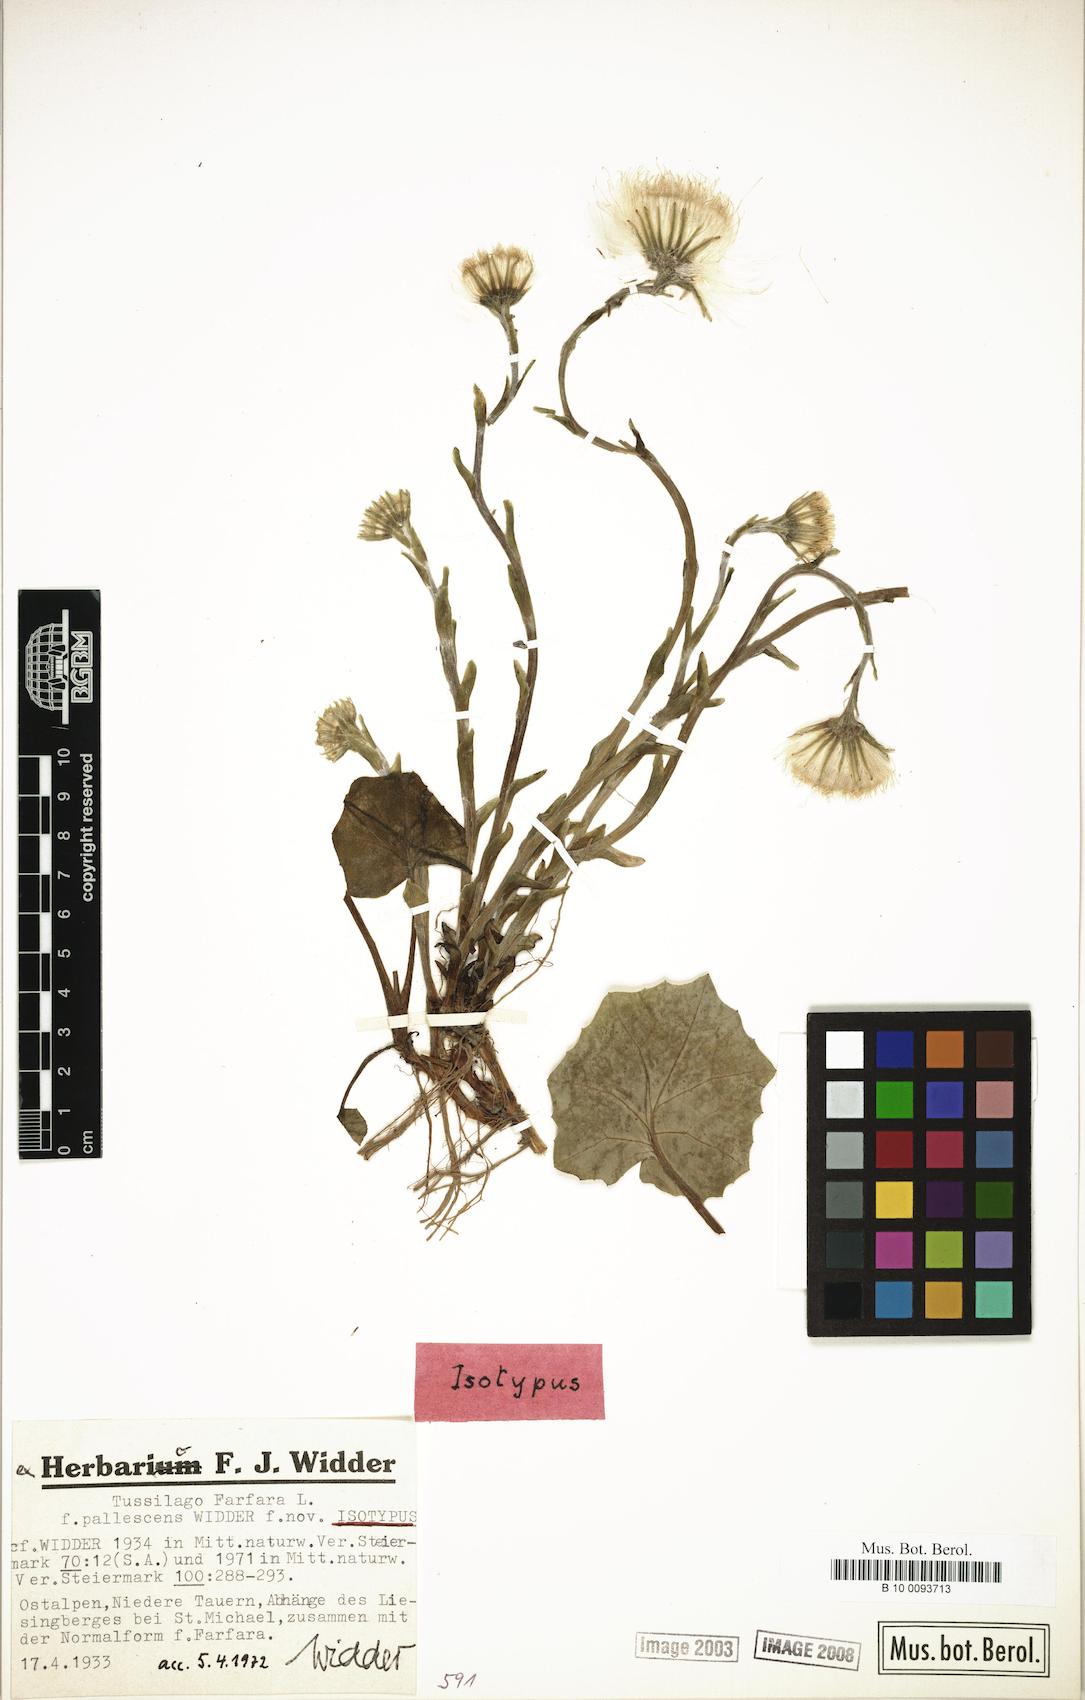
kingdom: Plantae
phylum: Tracheophyta
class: Magnoliopsida
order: Asterales
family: Asteraceae
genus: Tussilago
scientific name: Tussilago farfara
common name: Coltsfoot
